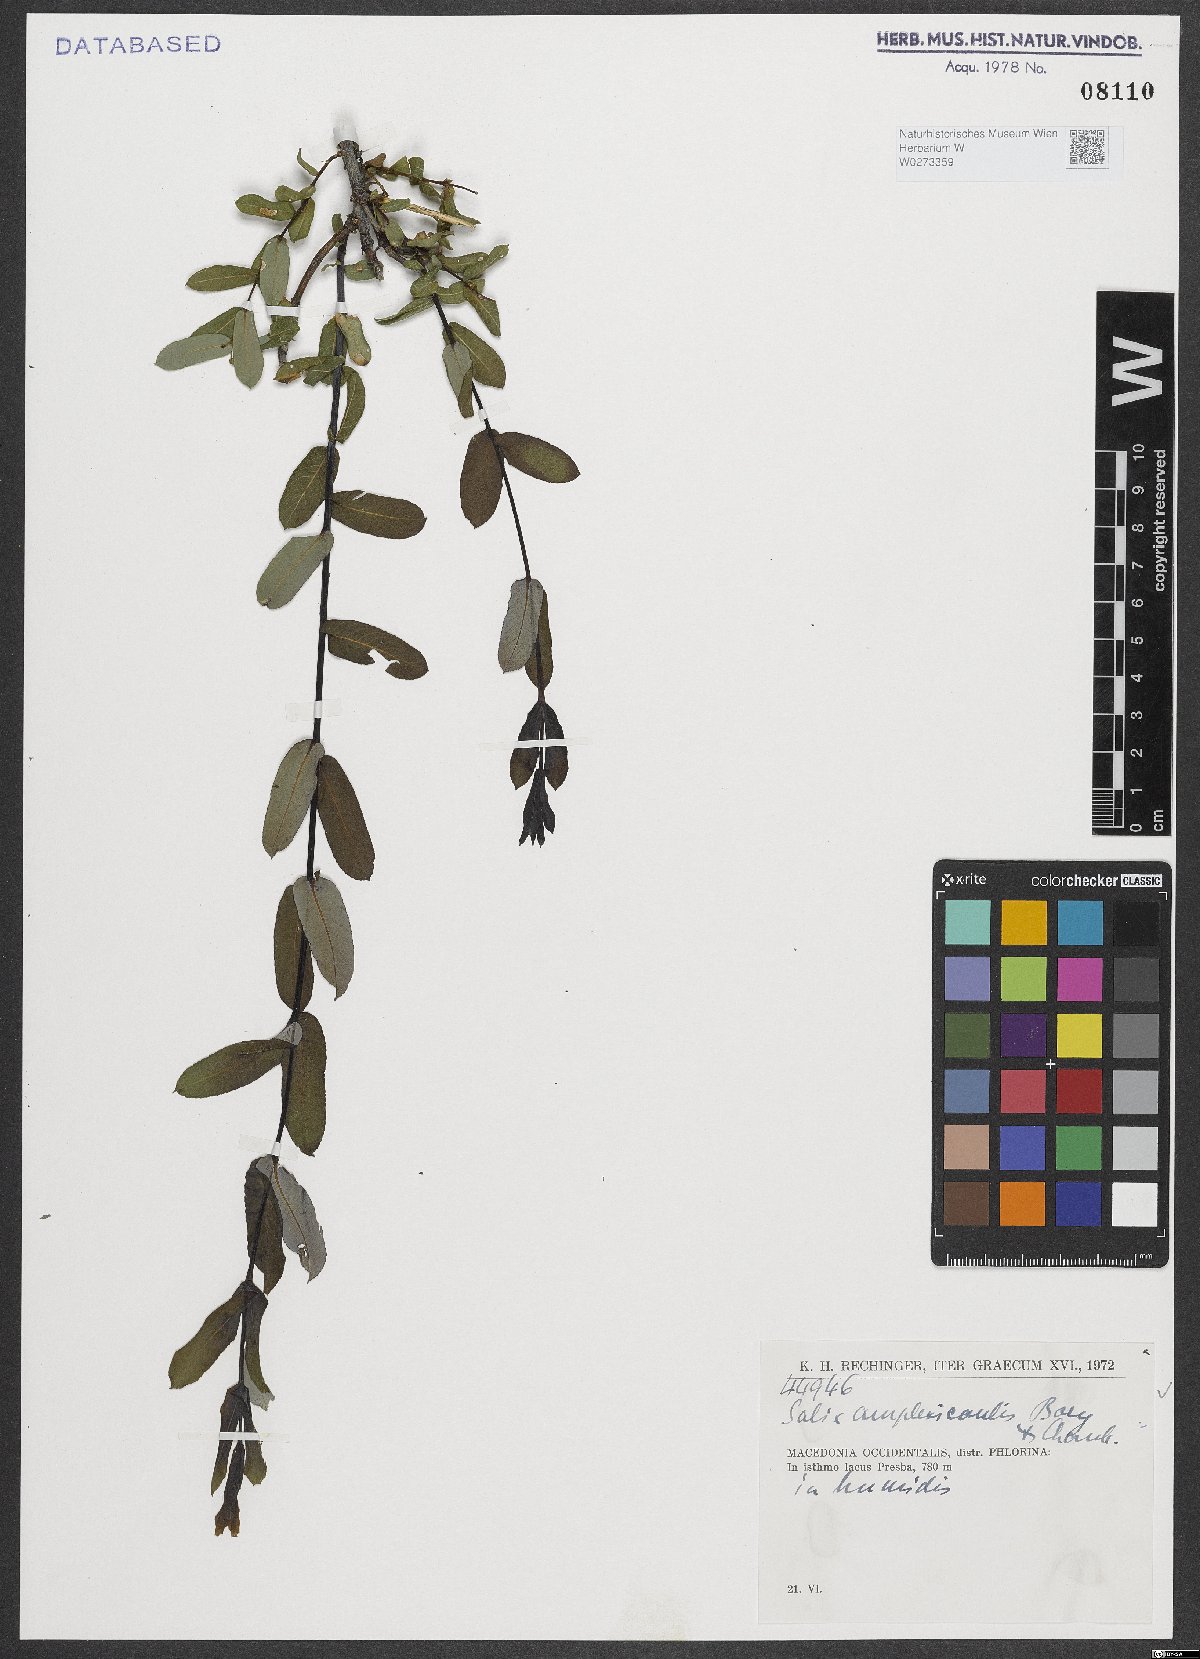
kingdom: Plantae
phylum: Tracheophyta
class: Magnoliopsida
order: Malpighiales
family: Salicaceae
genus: Salix
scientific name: Salix amplexicaulis
